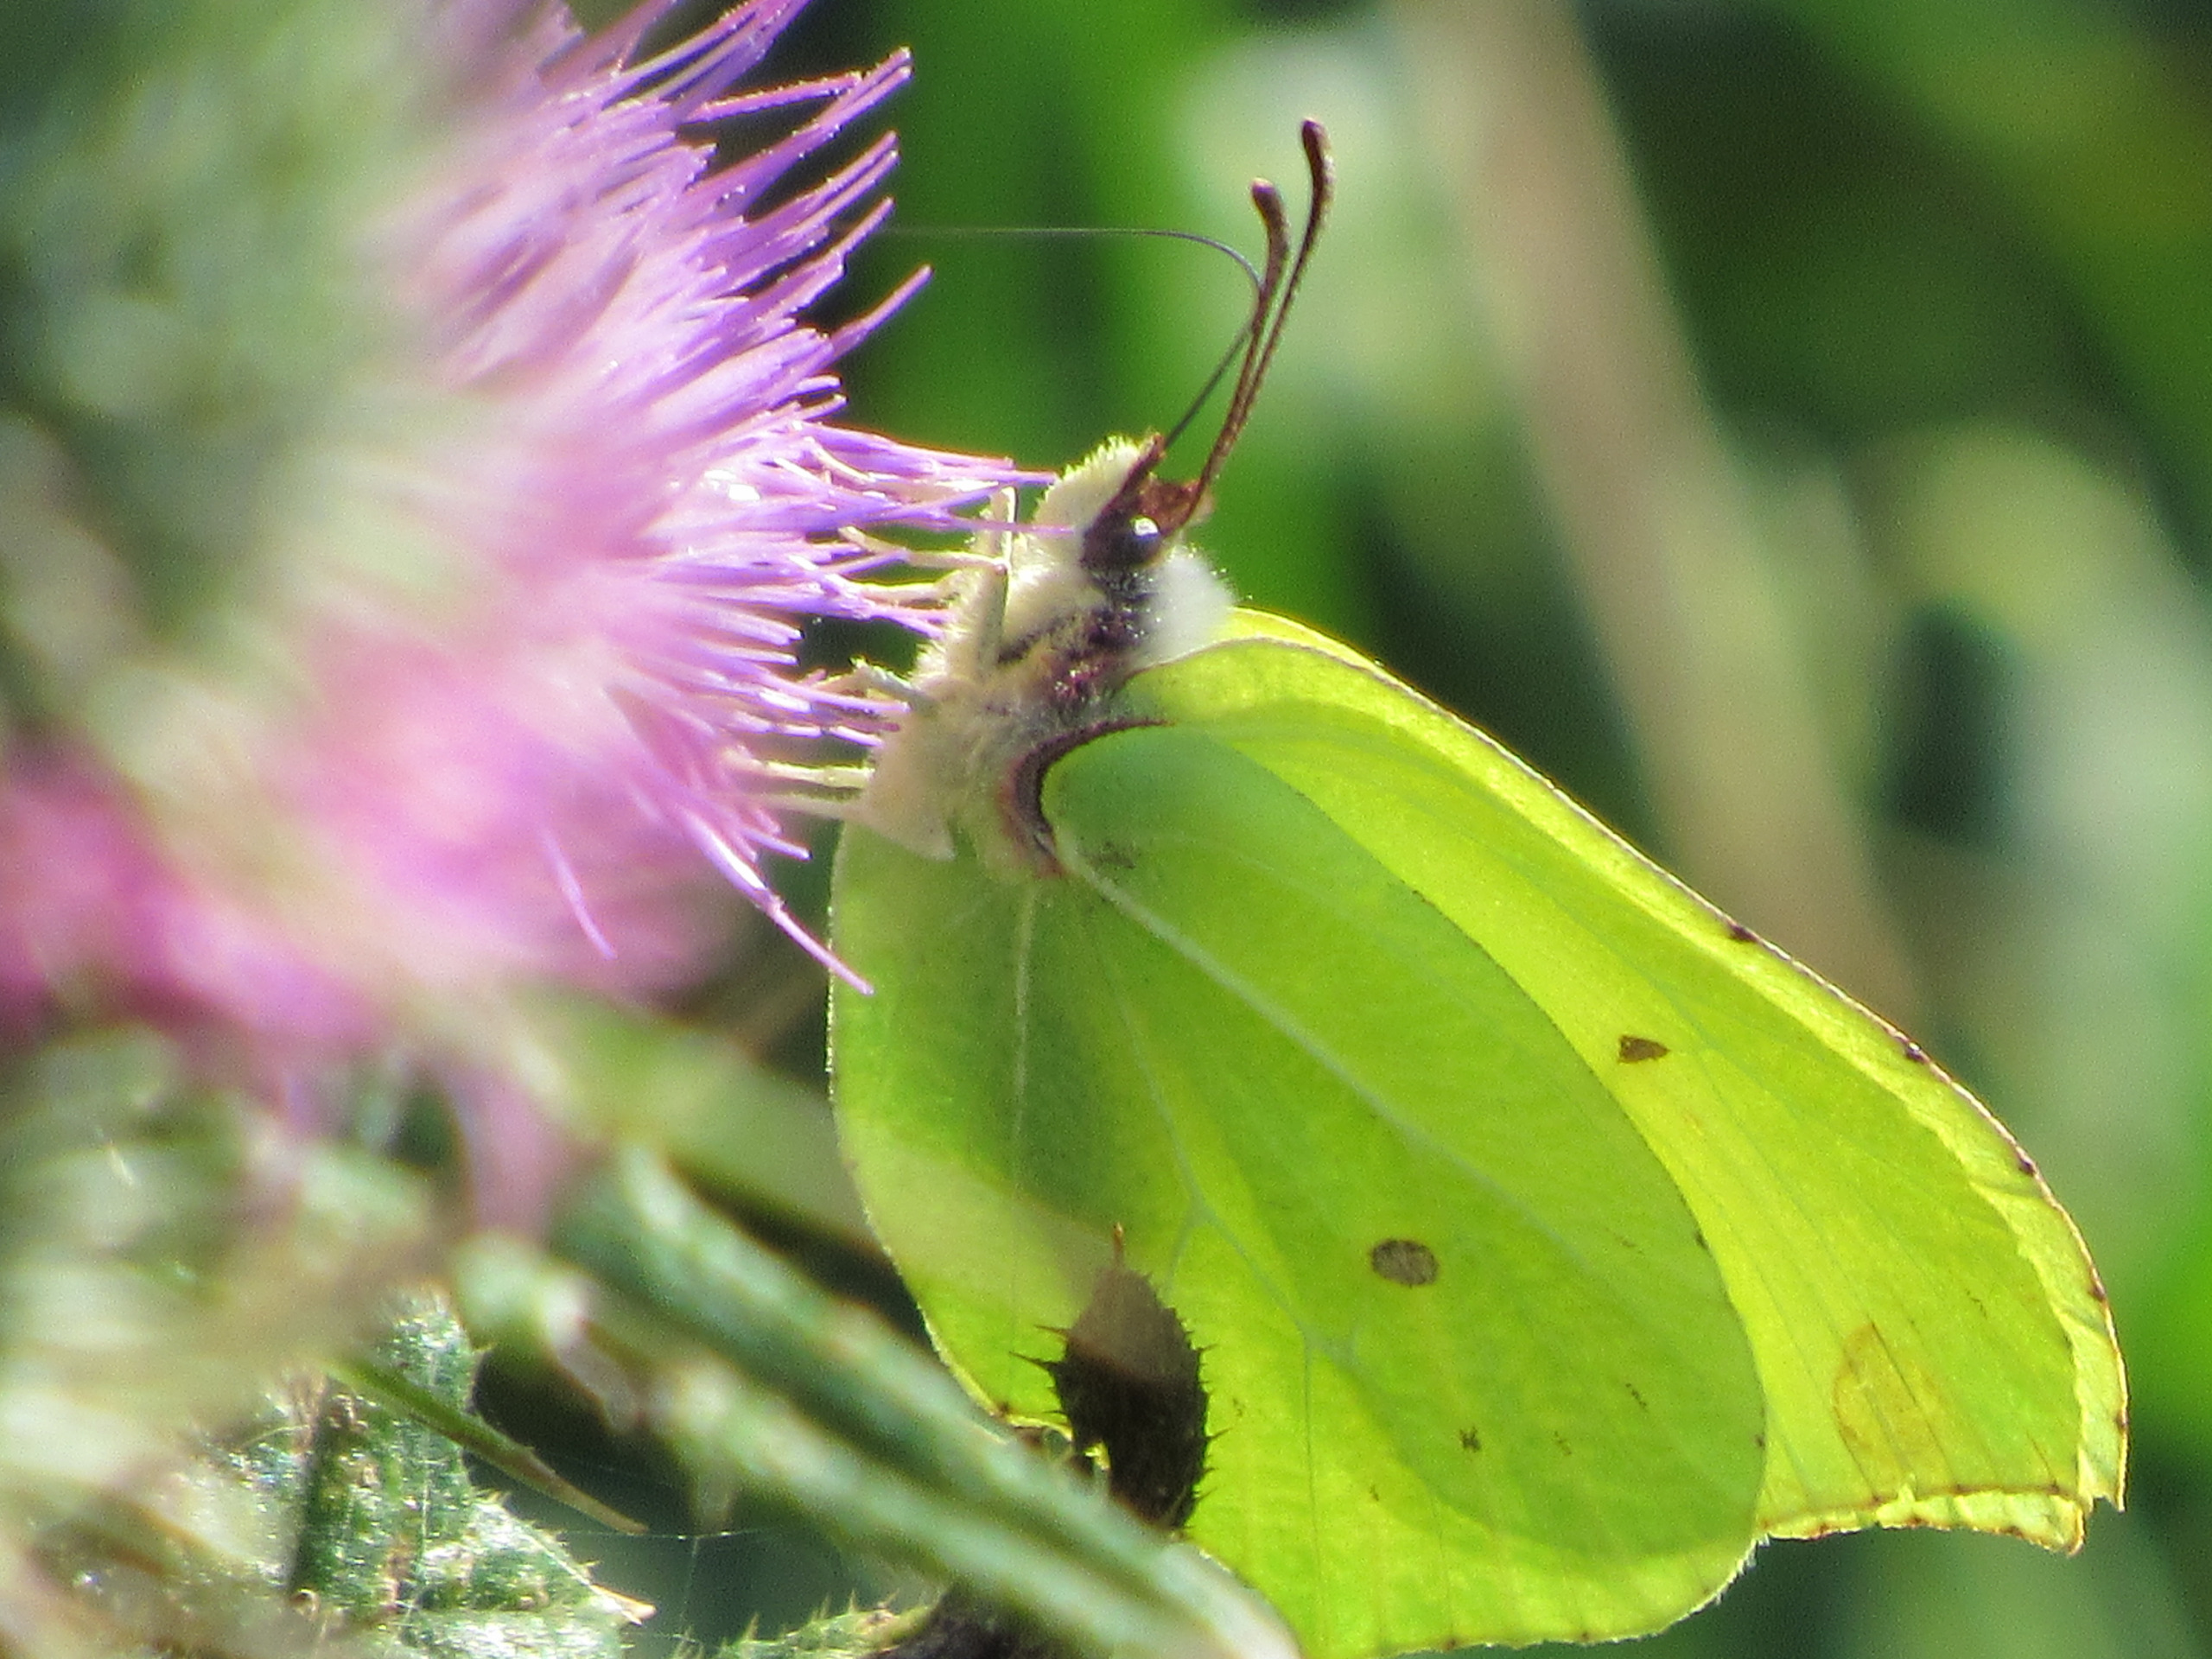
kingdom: Animalia
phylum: Arthropoda
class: Insecta
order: Lepidoptera
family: Pieridae
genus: Gonepteryx
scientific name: Gonepteryx rhamni
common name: Citronsommerfugl
